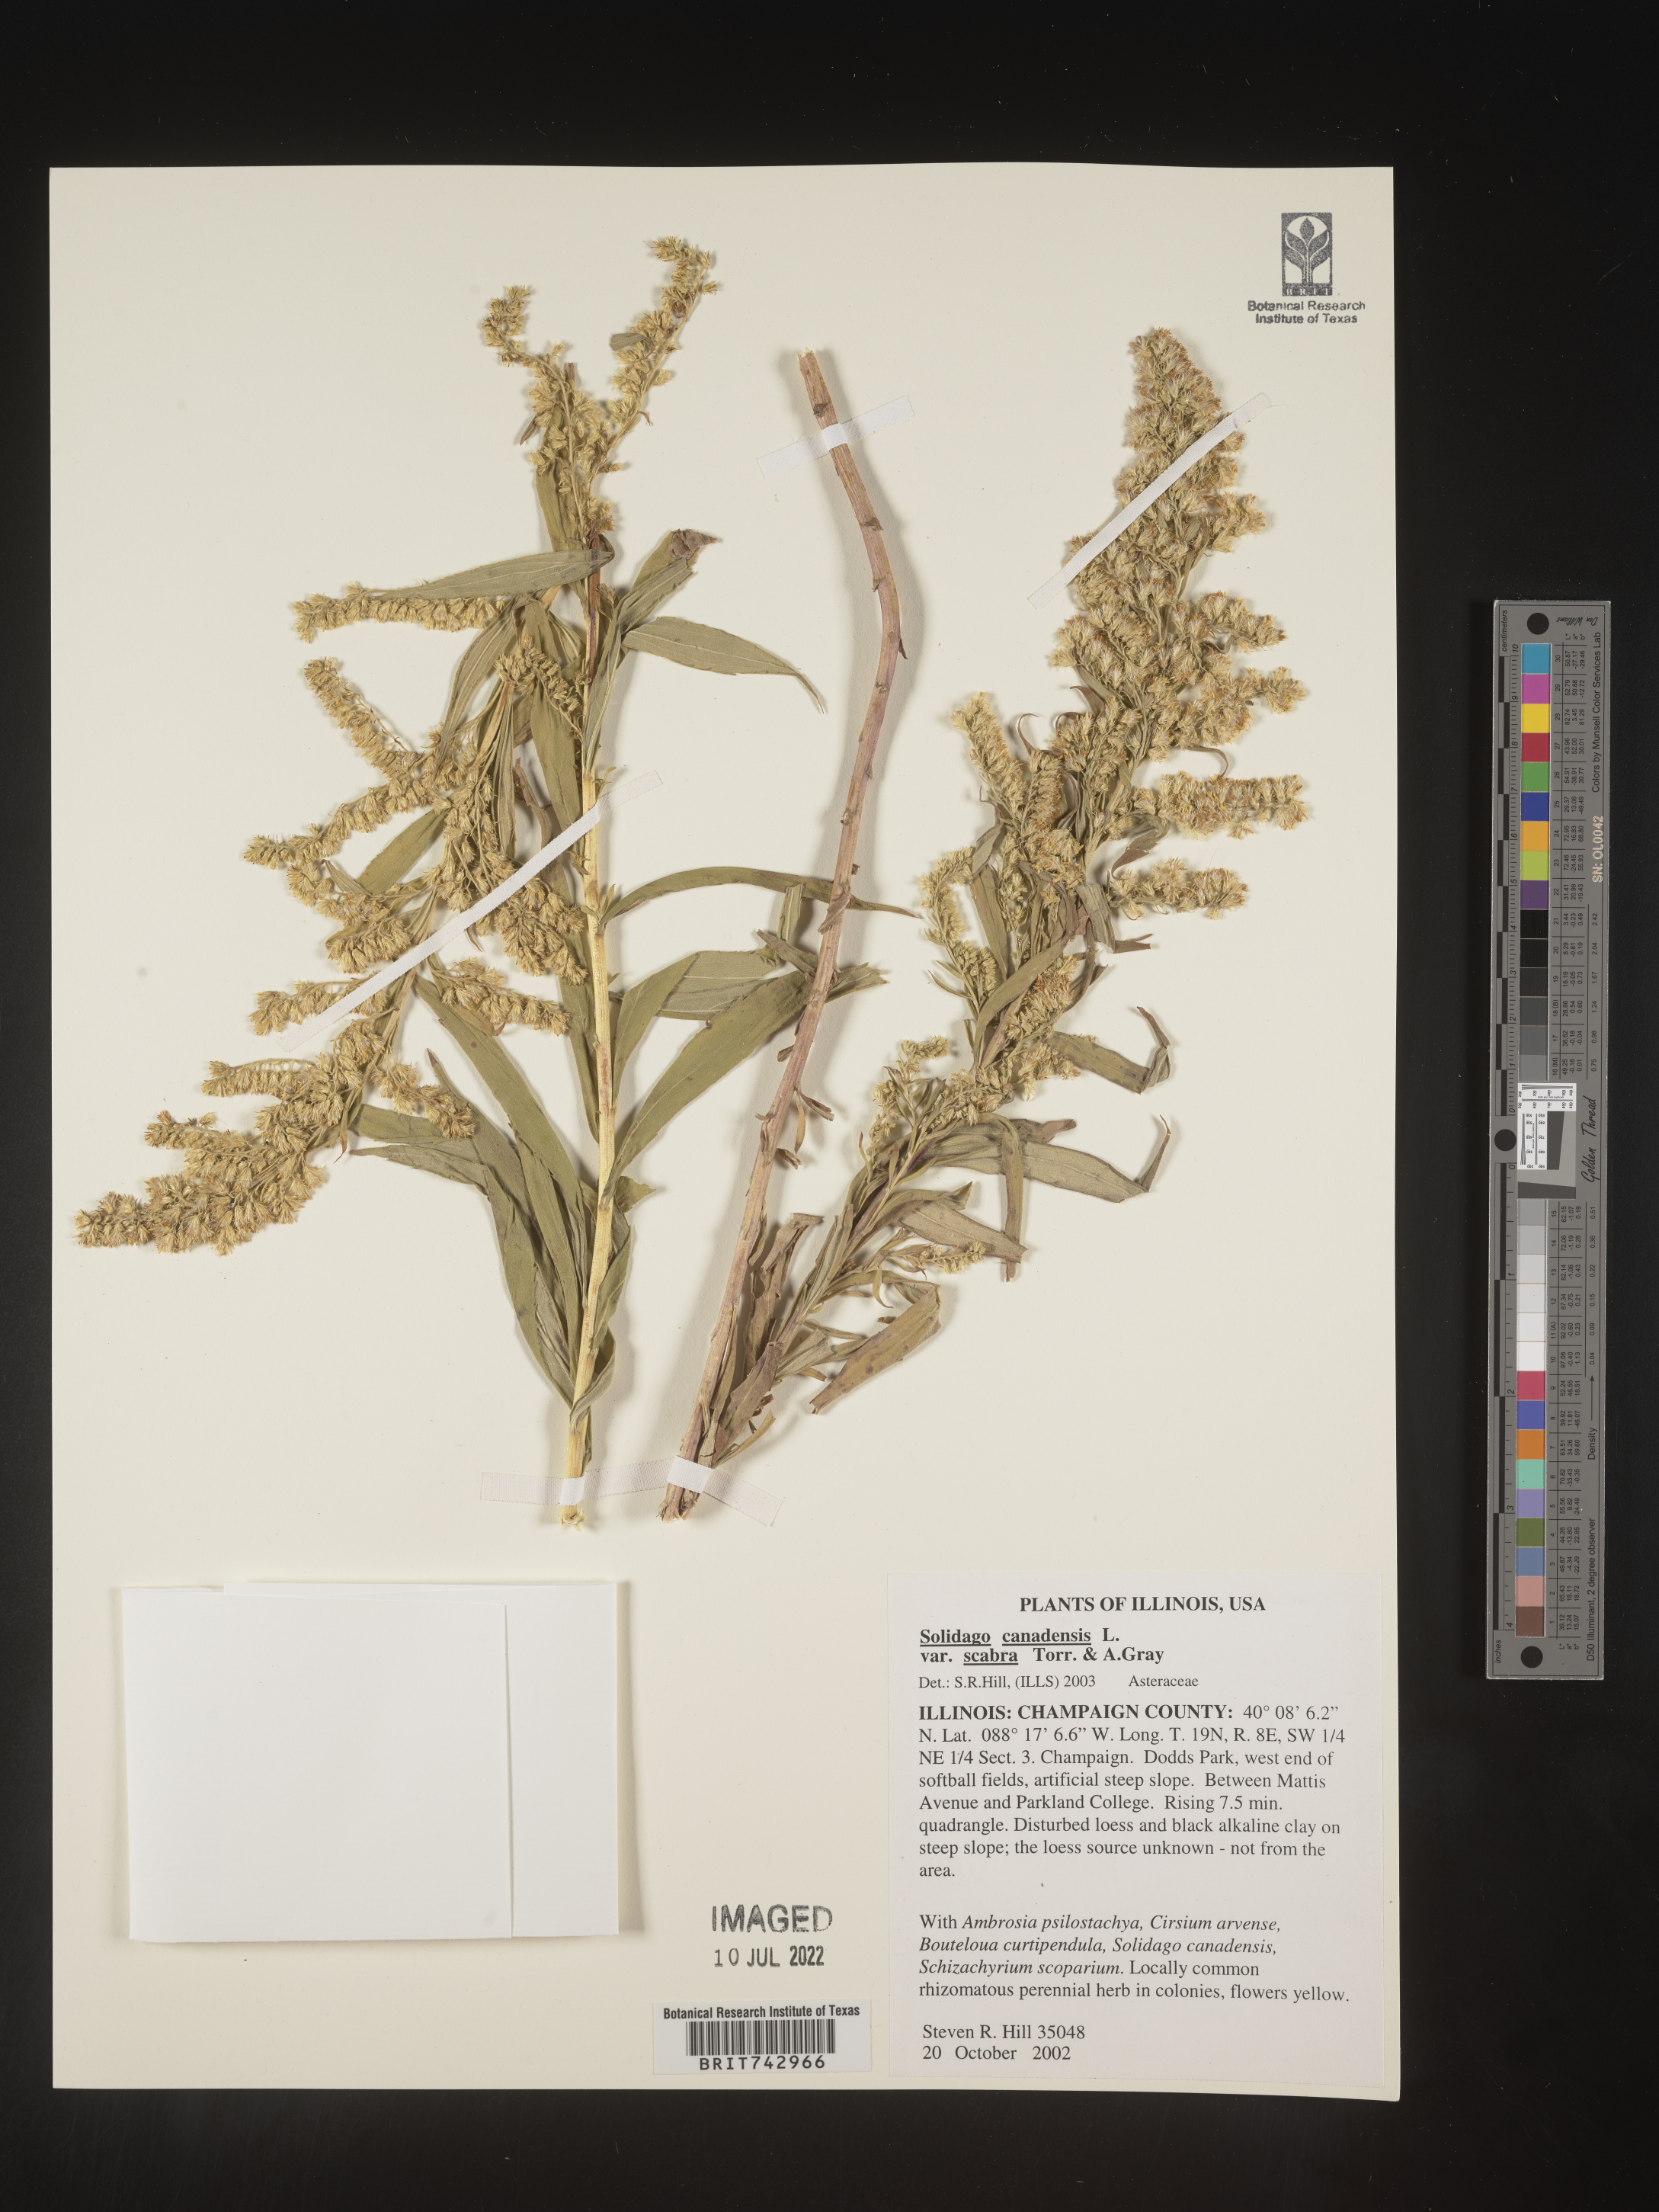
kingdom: Plantae
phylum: Tracheophyta
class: Magnoliopsida
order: Asterales
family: Asteraceae
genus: Solidago
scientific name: Solidago altissima
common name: Late goldenrod
